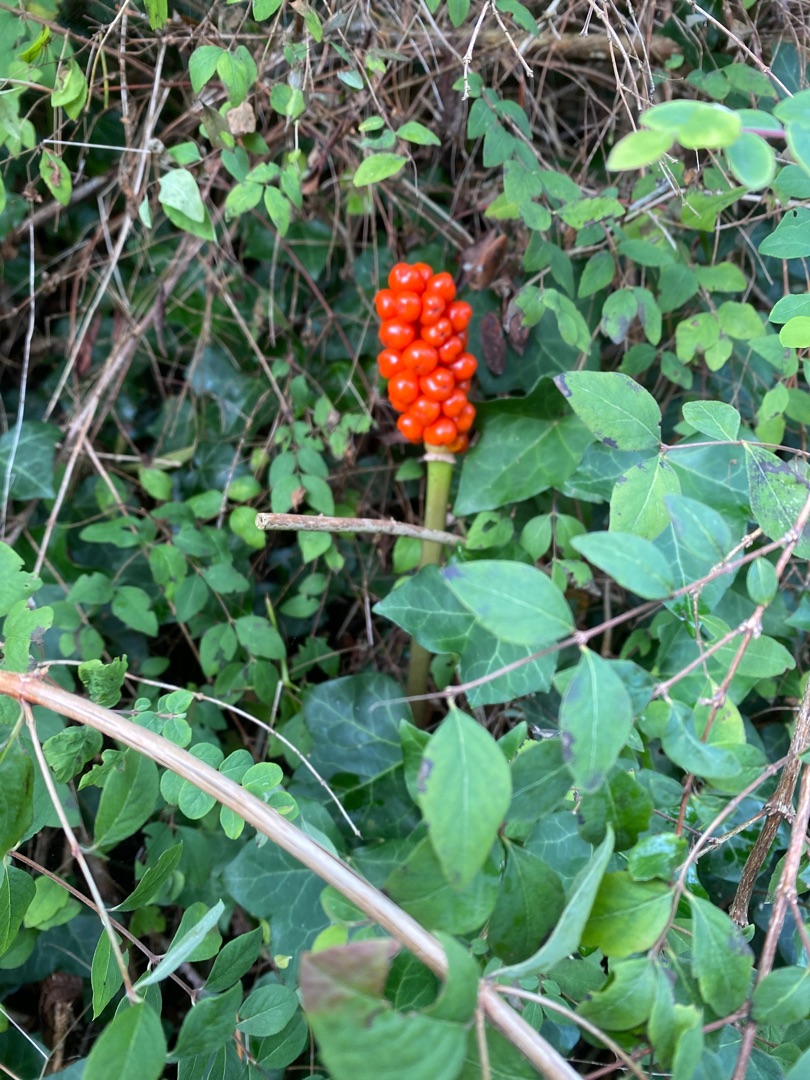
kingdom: Plantae
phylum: Tracheophyta
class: Liliopsida
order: Alismatales
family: Araceae
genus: Arum
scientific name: Arum
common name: Arumslægten
